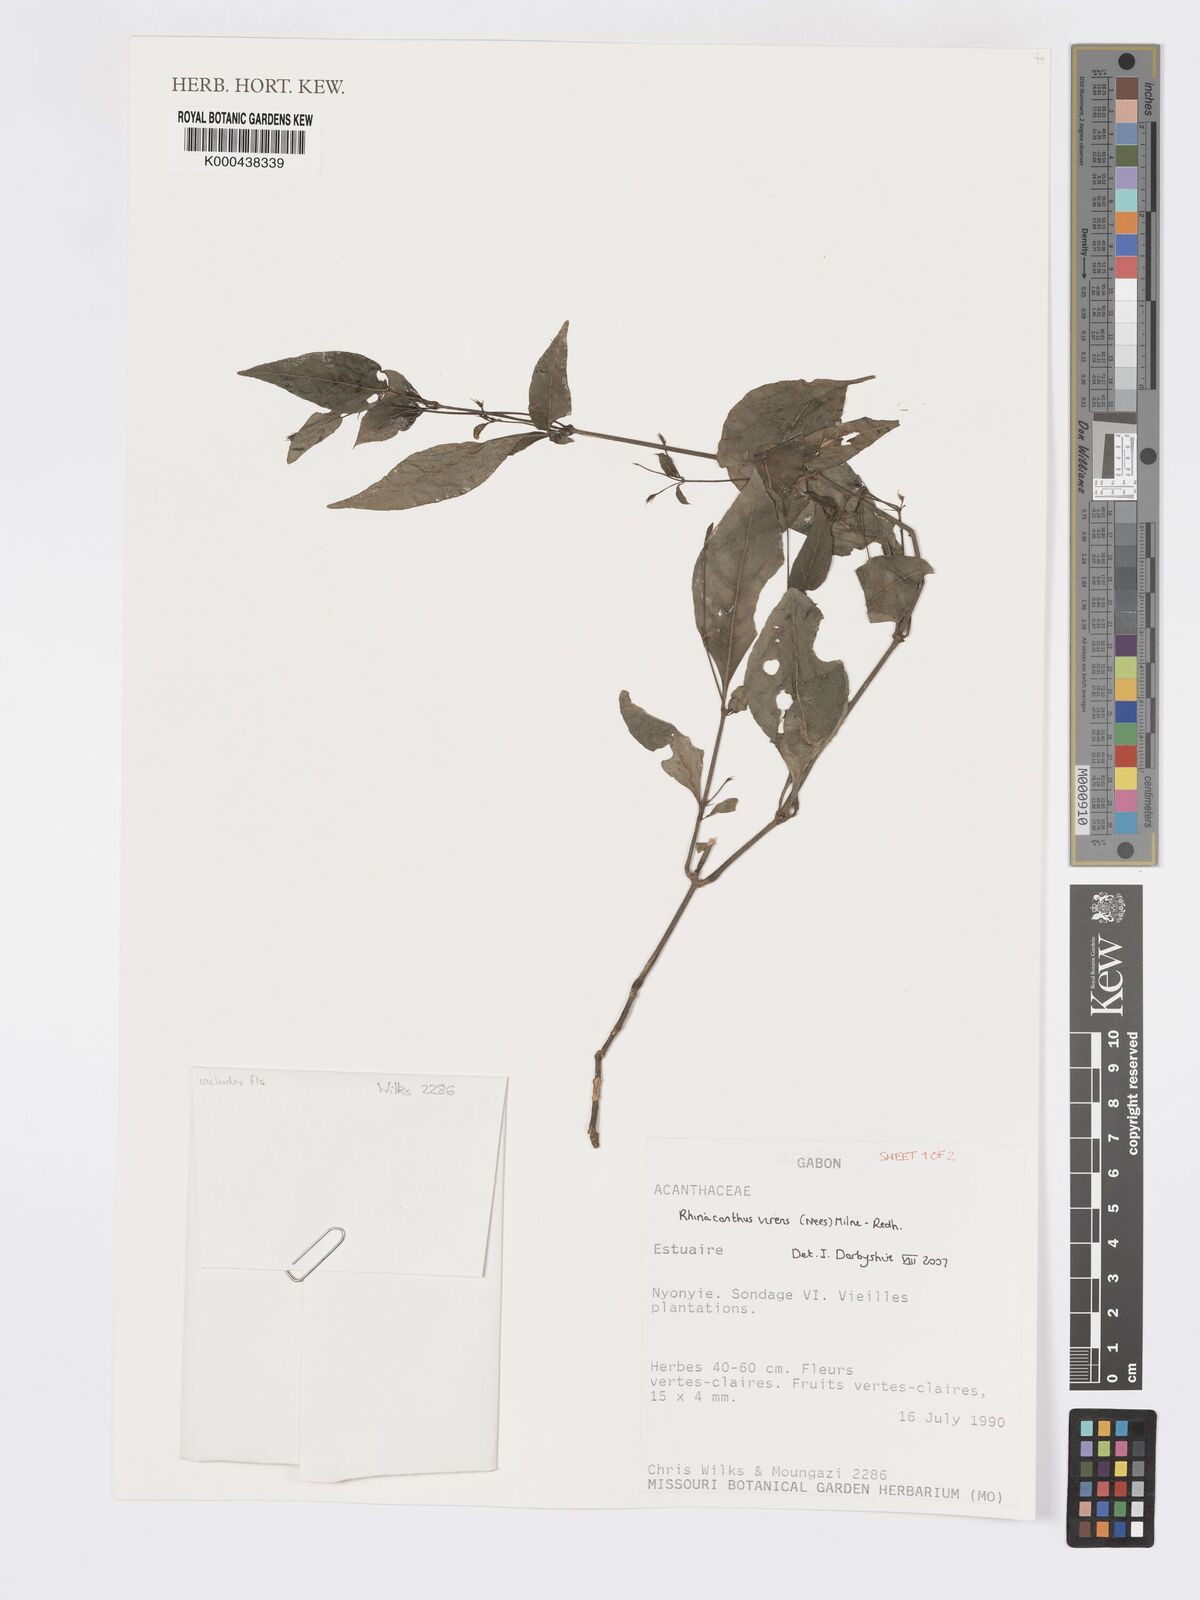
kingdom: Plantae
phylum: Tracheophyta
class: Magnoliopsida
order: Lamiales
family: Acanthaceae
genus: Rhinacanthus
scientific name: Rhinacanthus virens
